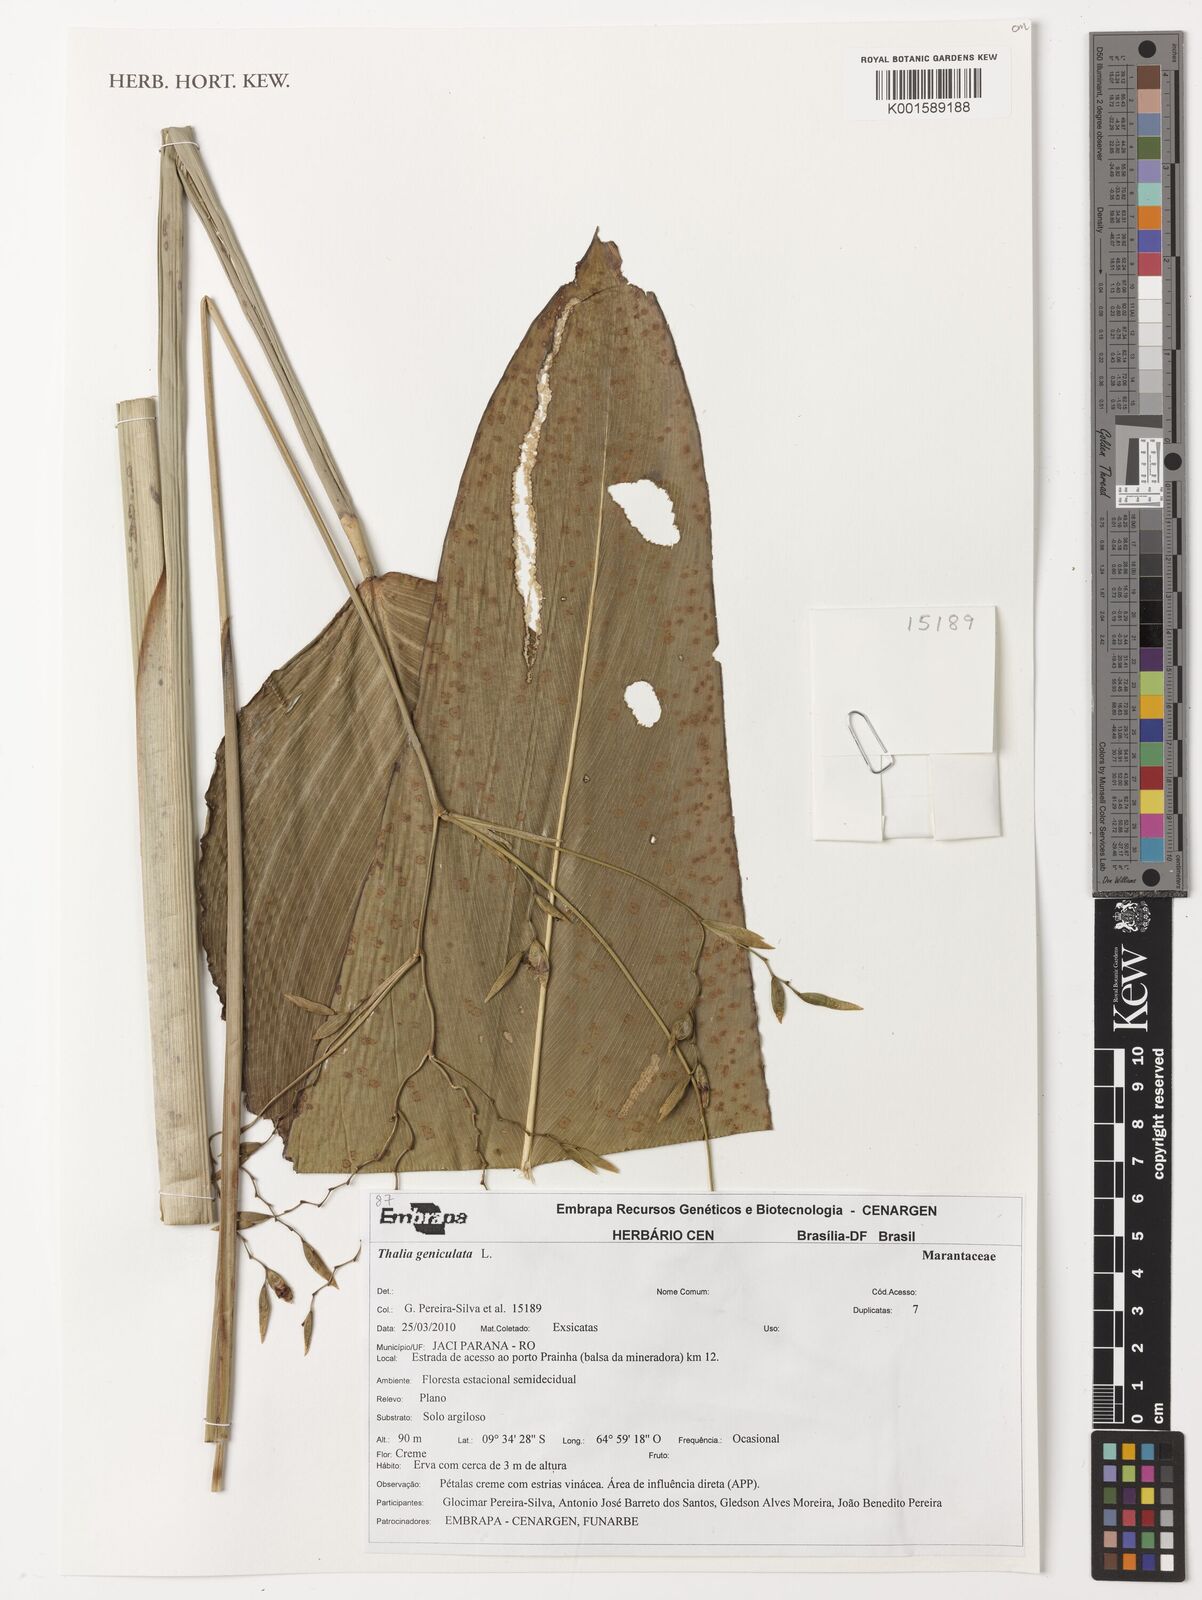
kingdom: Plantae
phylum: Tracheophyta
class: Liliopsida
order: Zingiberales
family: Marantaceae
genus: Thalia
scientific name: Thalia geniculata
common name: Arrowroot
